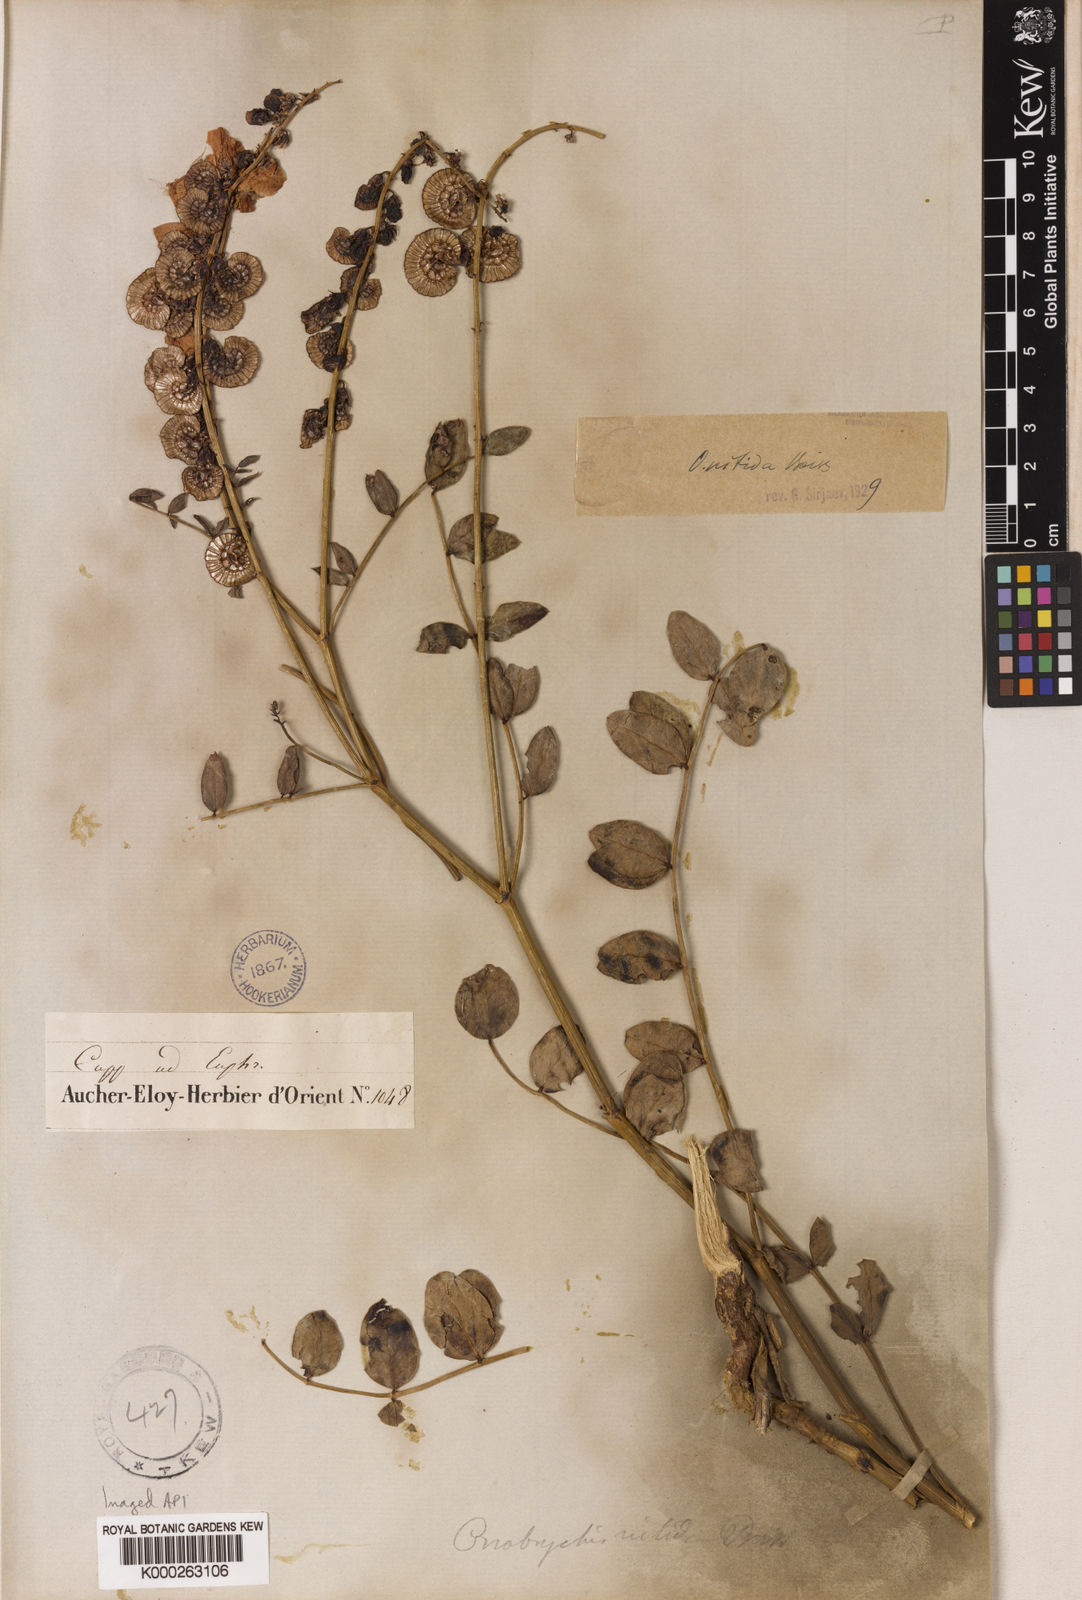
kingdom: Plantae
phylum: Tracheophyta
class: Magnoliopsida
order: Fabales
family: Fabaceae
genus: Onobrychis
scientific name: Onobrychis nitida
